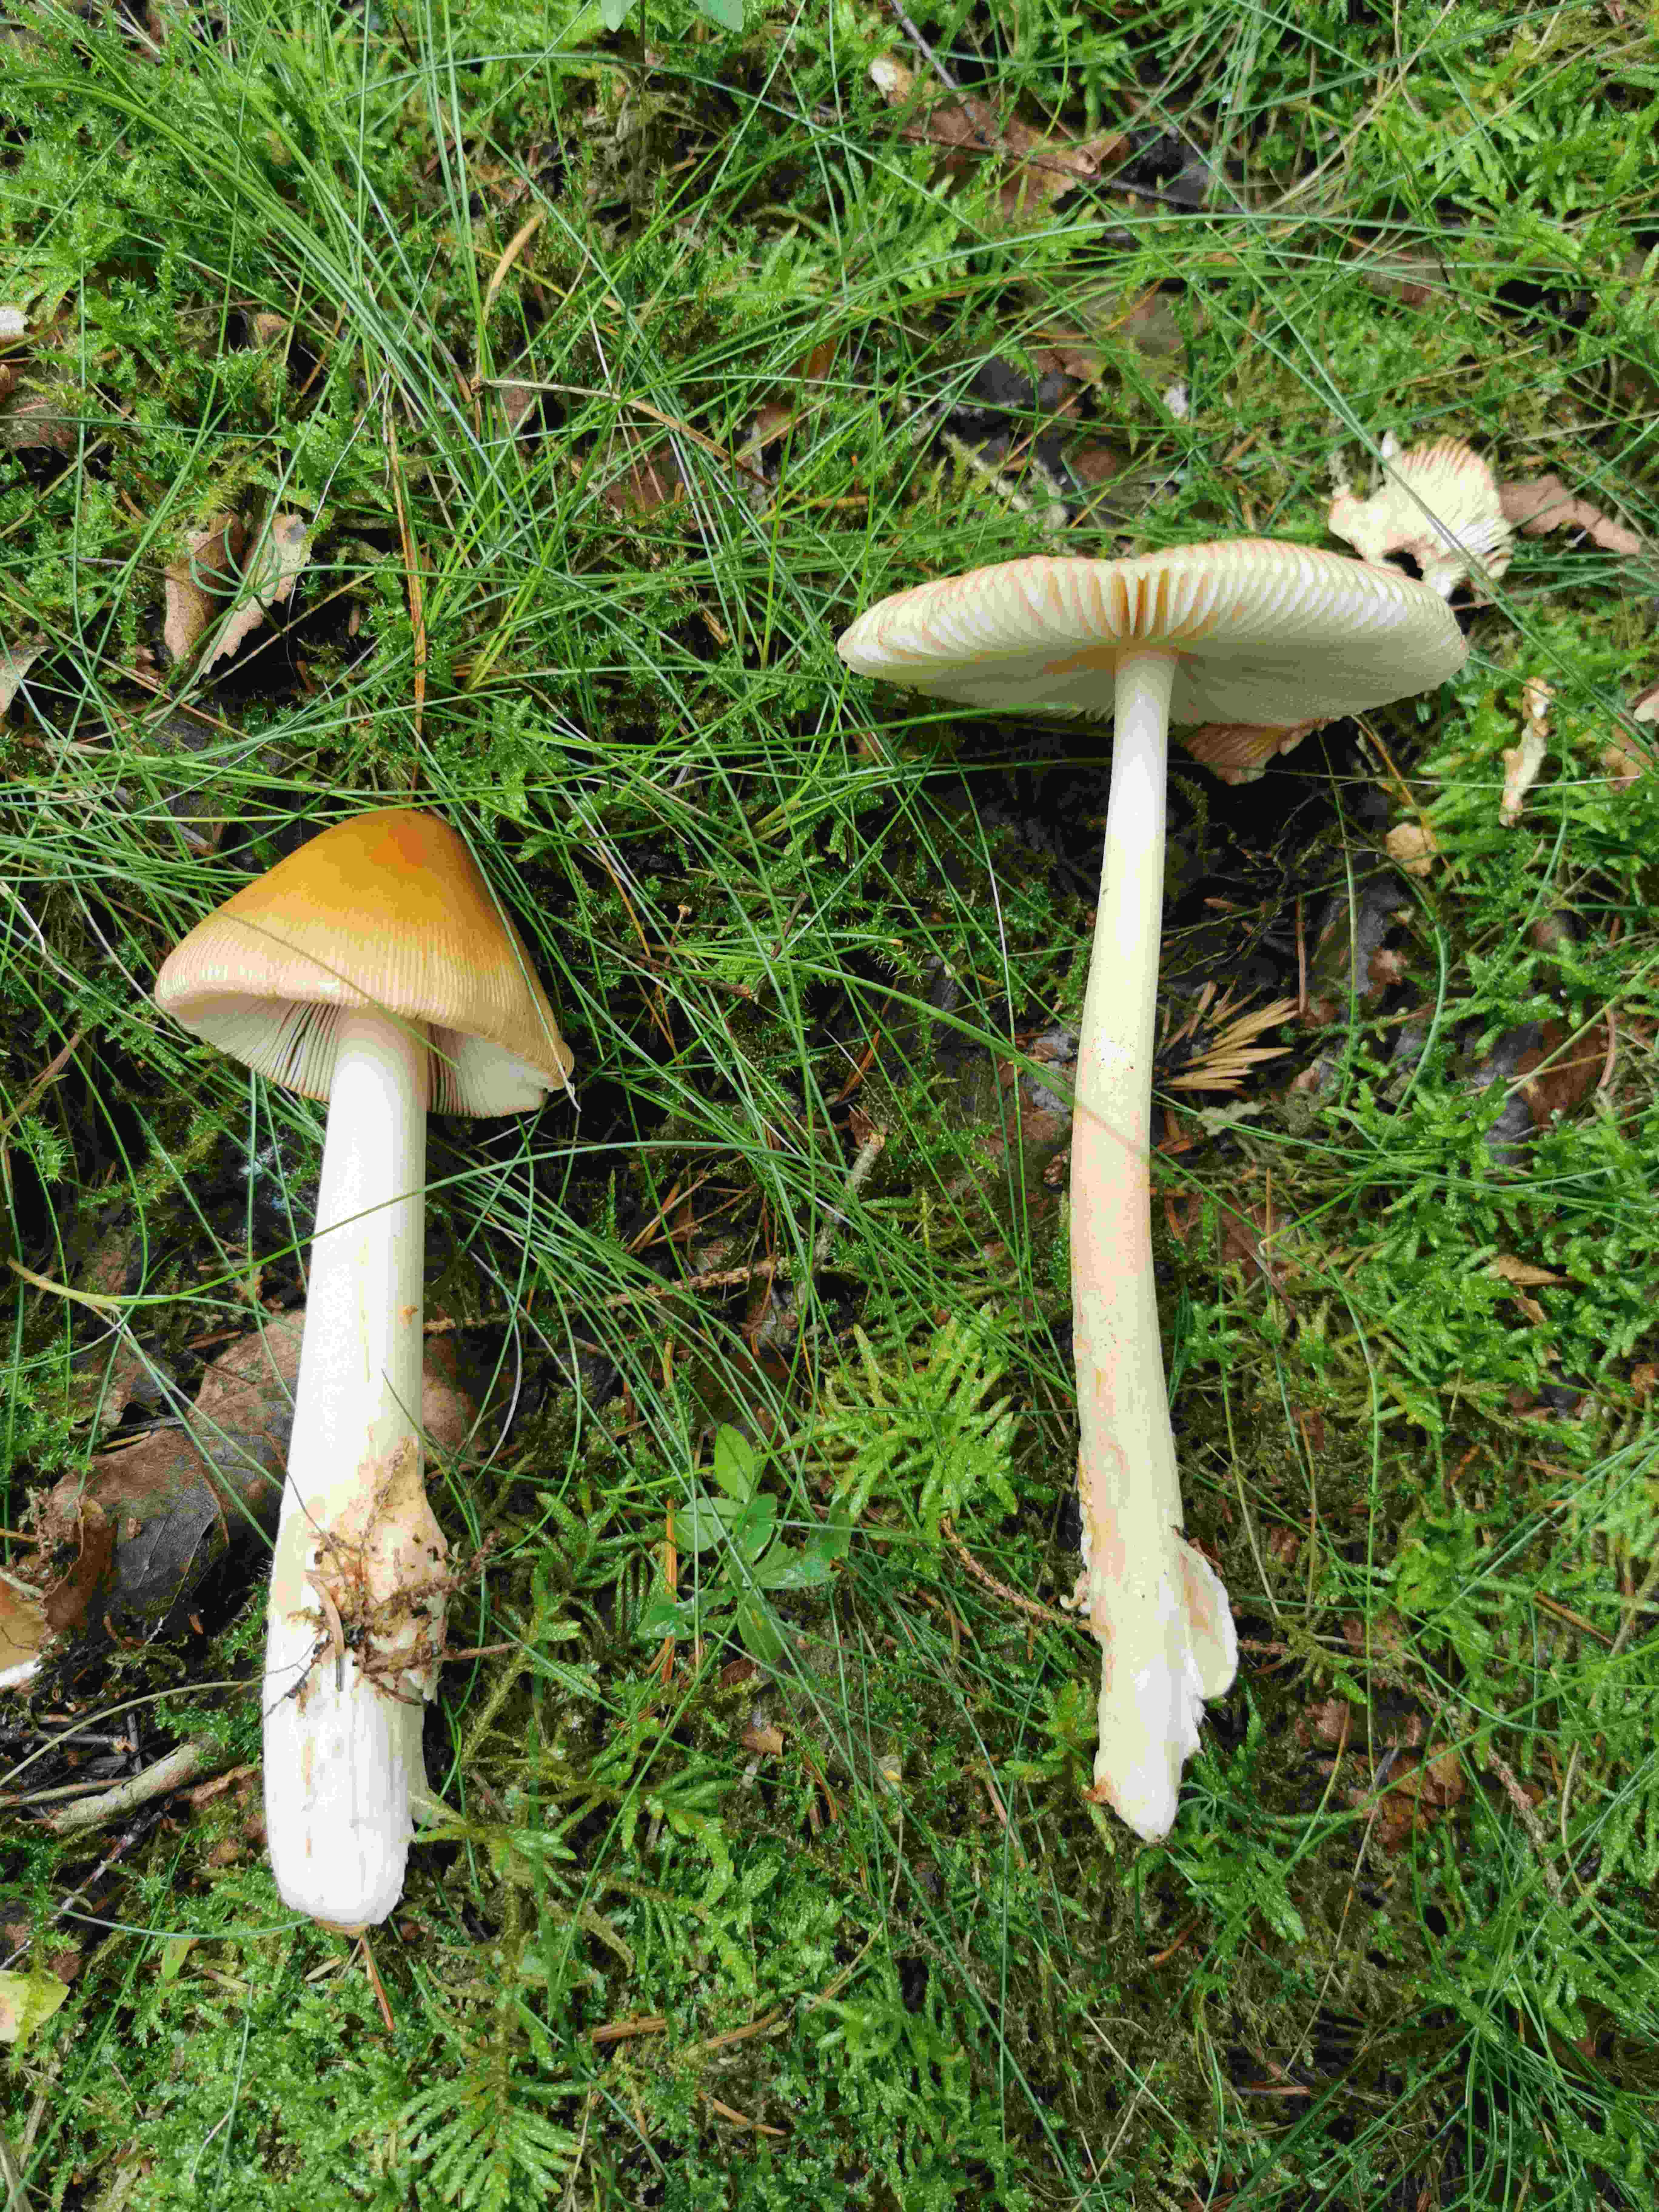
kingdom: Fungi
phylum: Basidiomycota
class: Agaricomycetes
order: Agaricales
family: Amanitaceae
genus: Amanita
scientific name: Amanita fulva
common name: brun kam-fluesvamp
